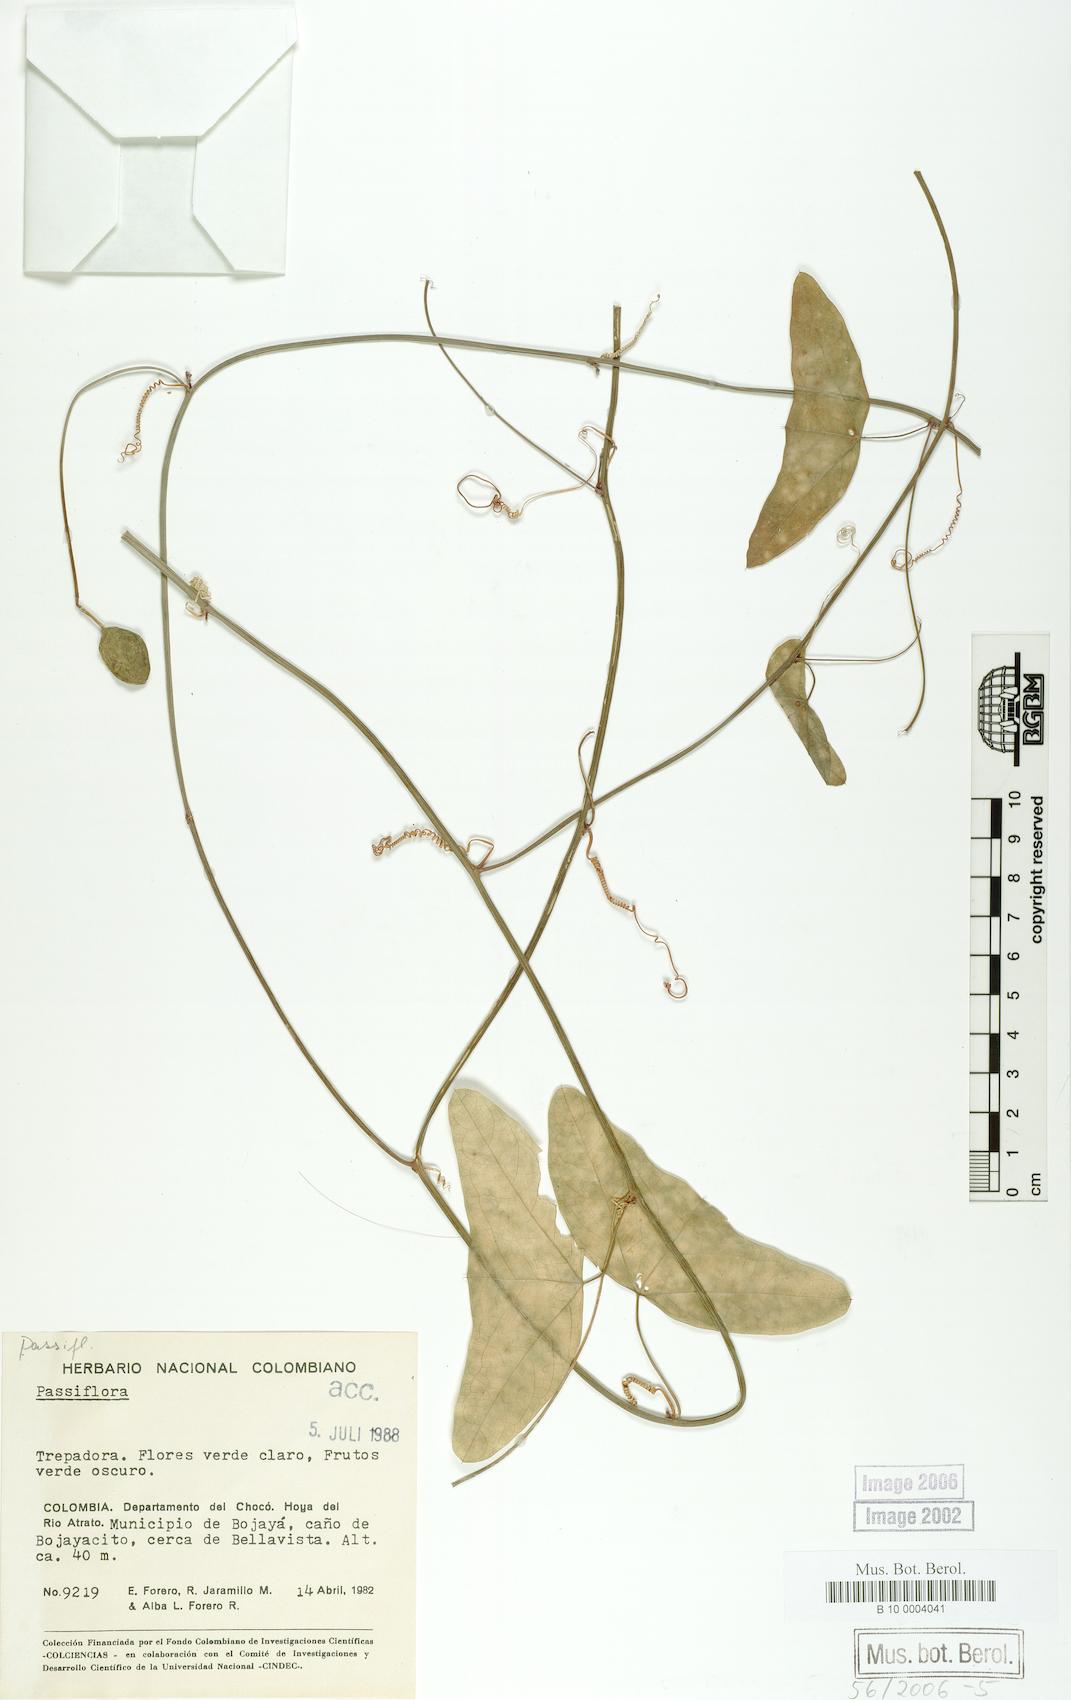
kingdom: Plantae
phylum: Tracheophyta
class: Magnoliopsida
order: Malpighiales
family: Passifloraceae
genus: Passiflora
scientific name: Passiflora misera
